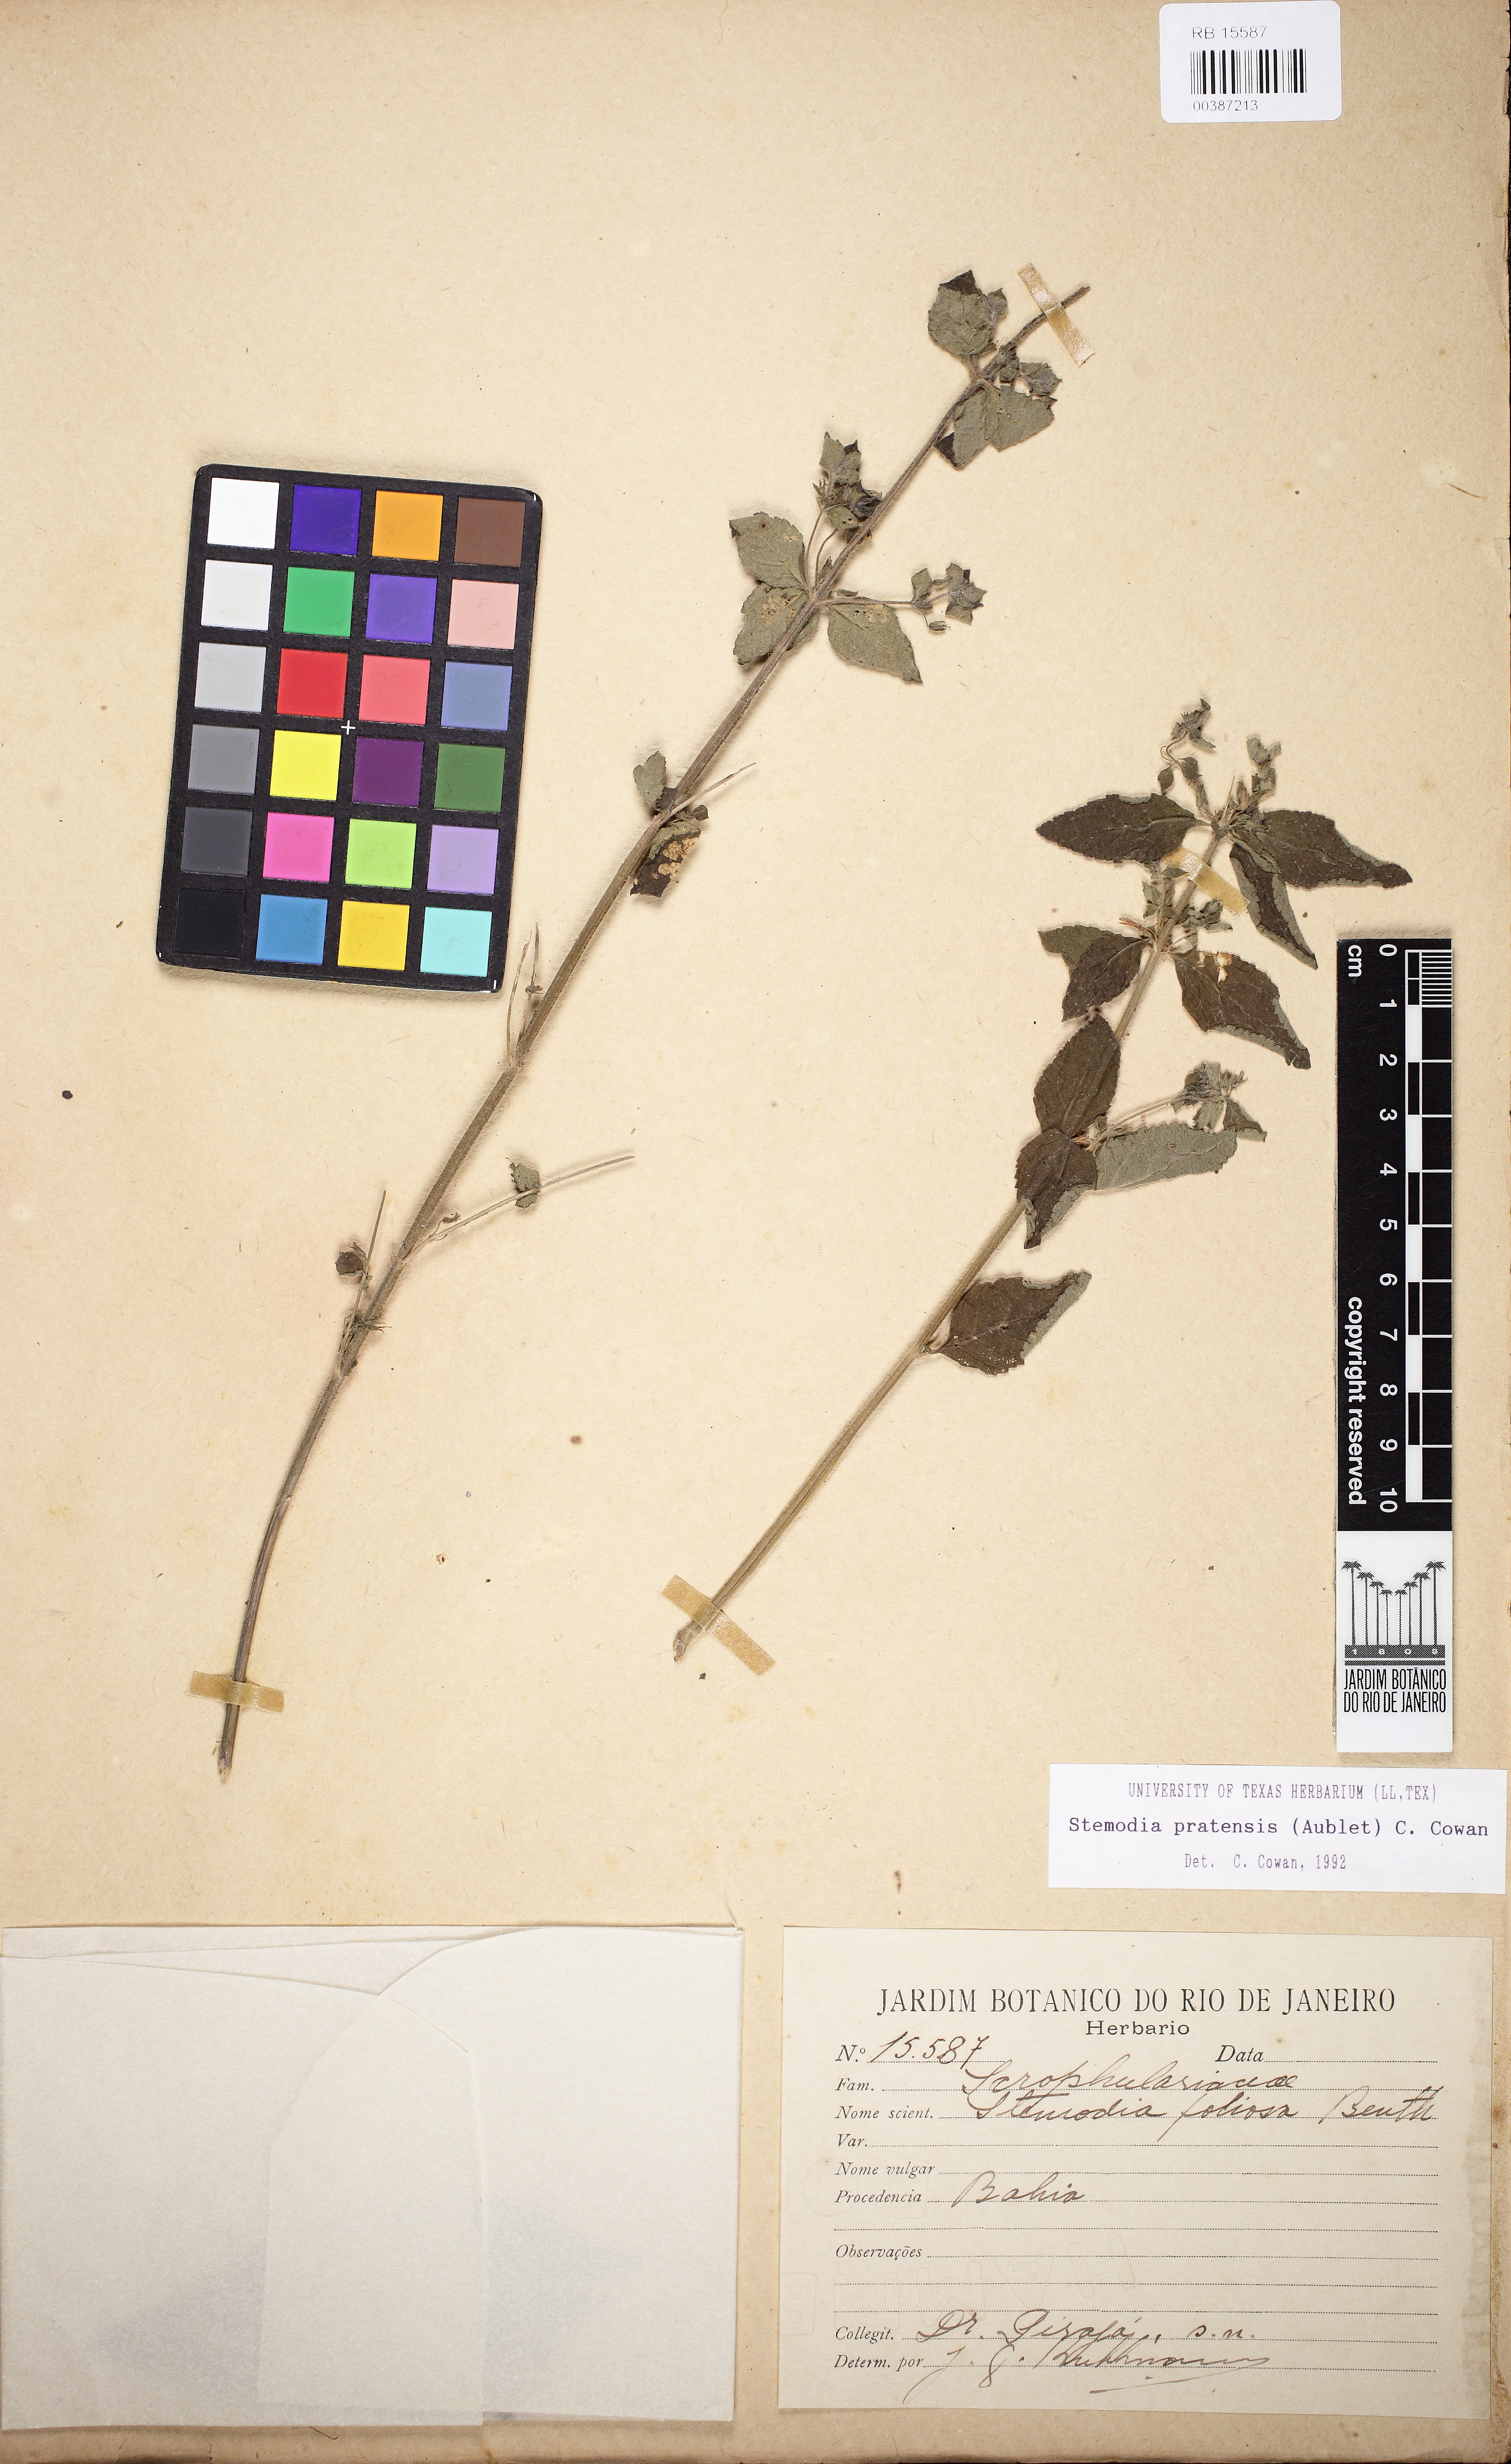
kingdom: Plantae
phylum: Tracheophyta
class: Magnoliopsida
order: Lamiales
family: Plantaginaceae
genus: Stemodia
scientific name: Stemodia foliosa
